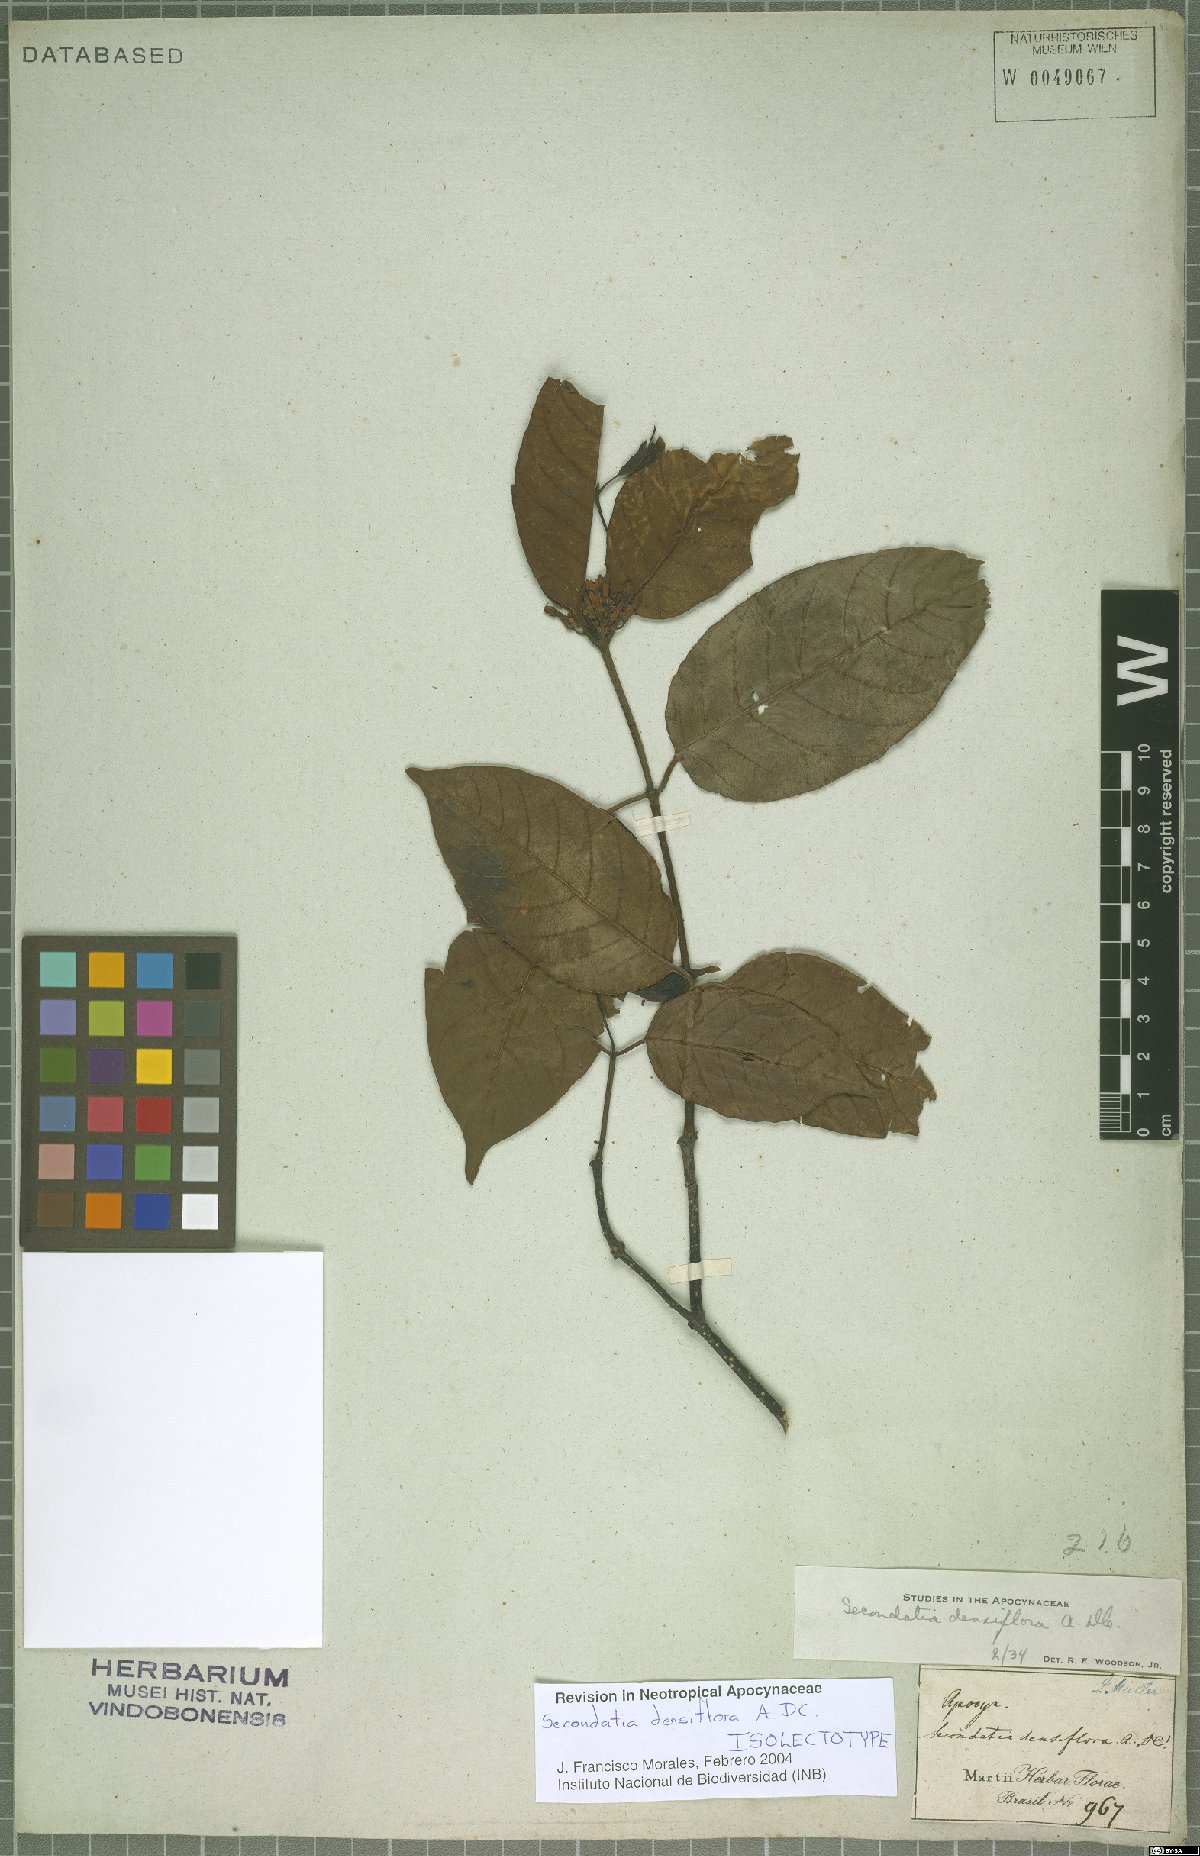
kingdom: Plantae
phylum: Tracheophyta
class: Magnoliopsida
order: Gentianales
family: Apocynaceae
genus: Secondatia
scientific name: Secondatia densiflora
